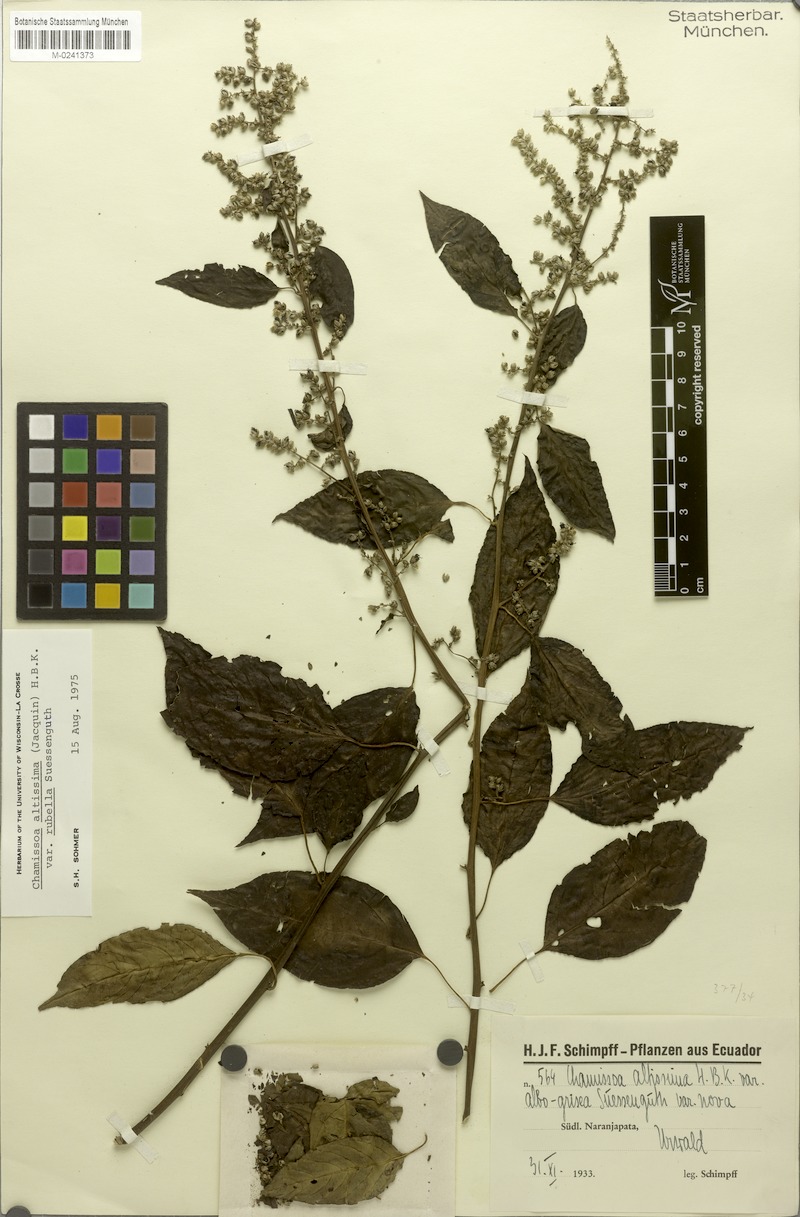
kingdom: Plantae
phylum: Tracheophyta
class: Magnoliopsida
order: Caryophyllales
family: Amaranthaceae
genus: Chamissoa
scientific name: Chamissoa altissima
